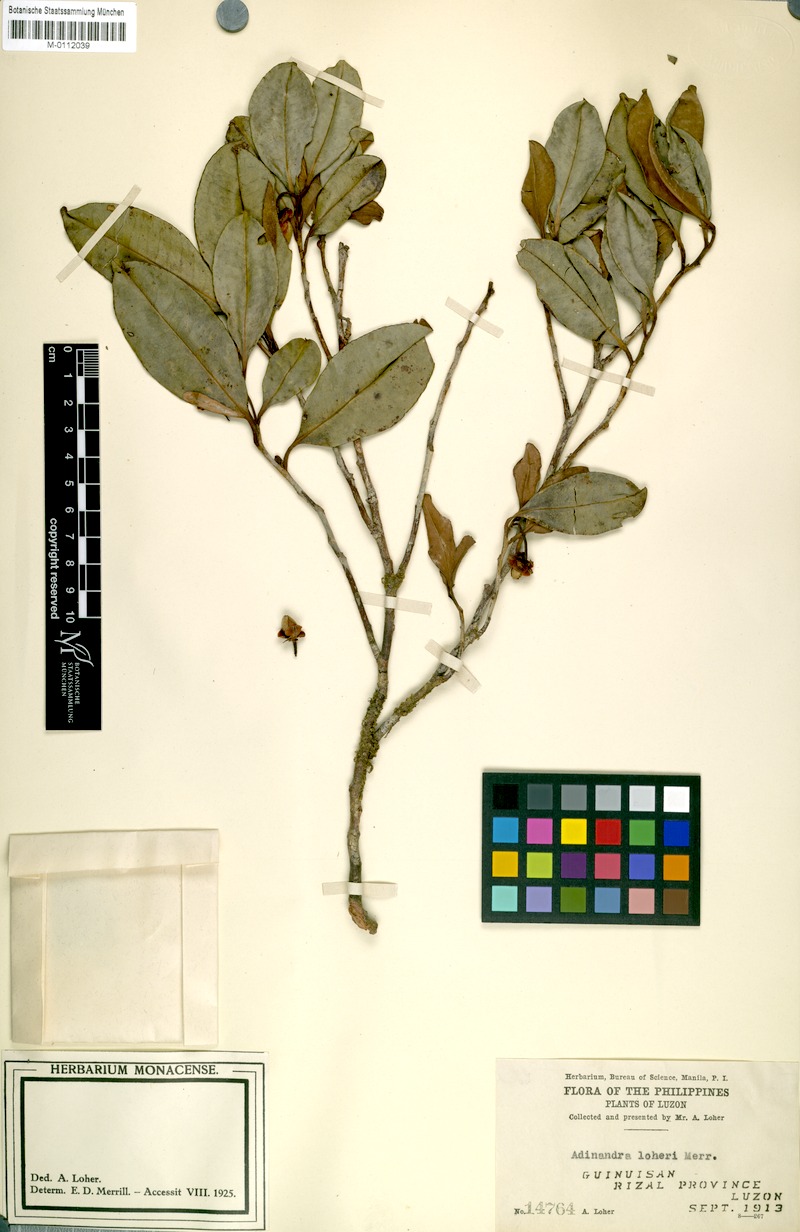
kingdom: Plantae
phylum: Tracheophyta
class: Magnoliopsida
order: Ericales
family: Pentaphylacaceae
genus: Adinandra
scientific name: Adinandra loheri
